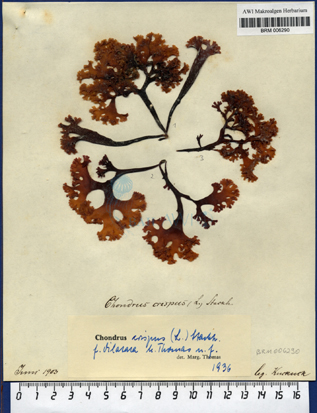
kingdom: Plantae
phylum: Rhodophyta
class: Florideophyceae
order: Gigartinales
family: Gigartinaceae
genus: Chondrus
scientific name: Chondrus crispus
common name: Carrageen
